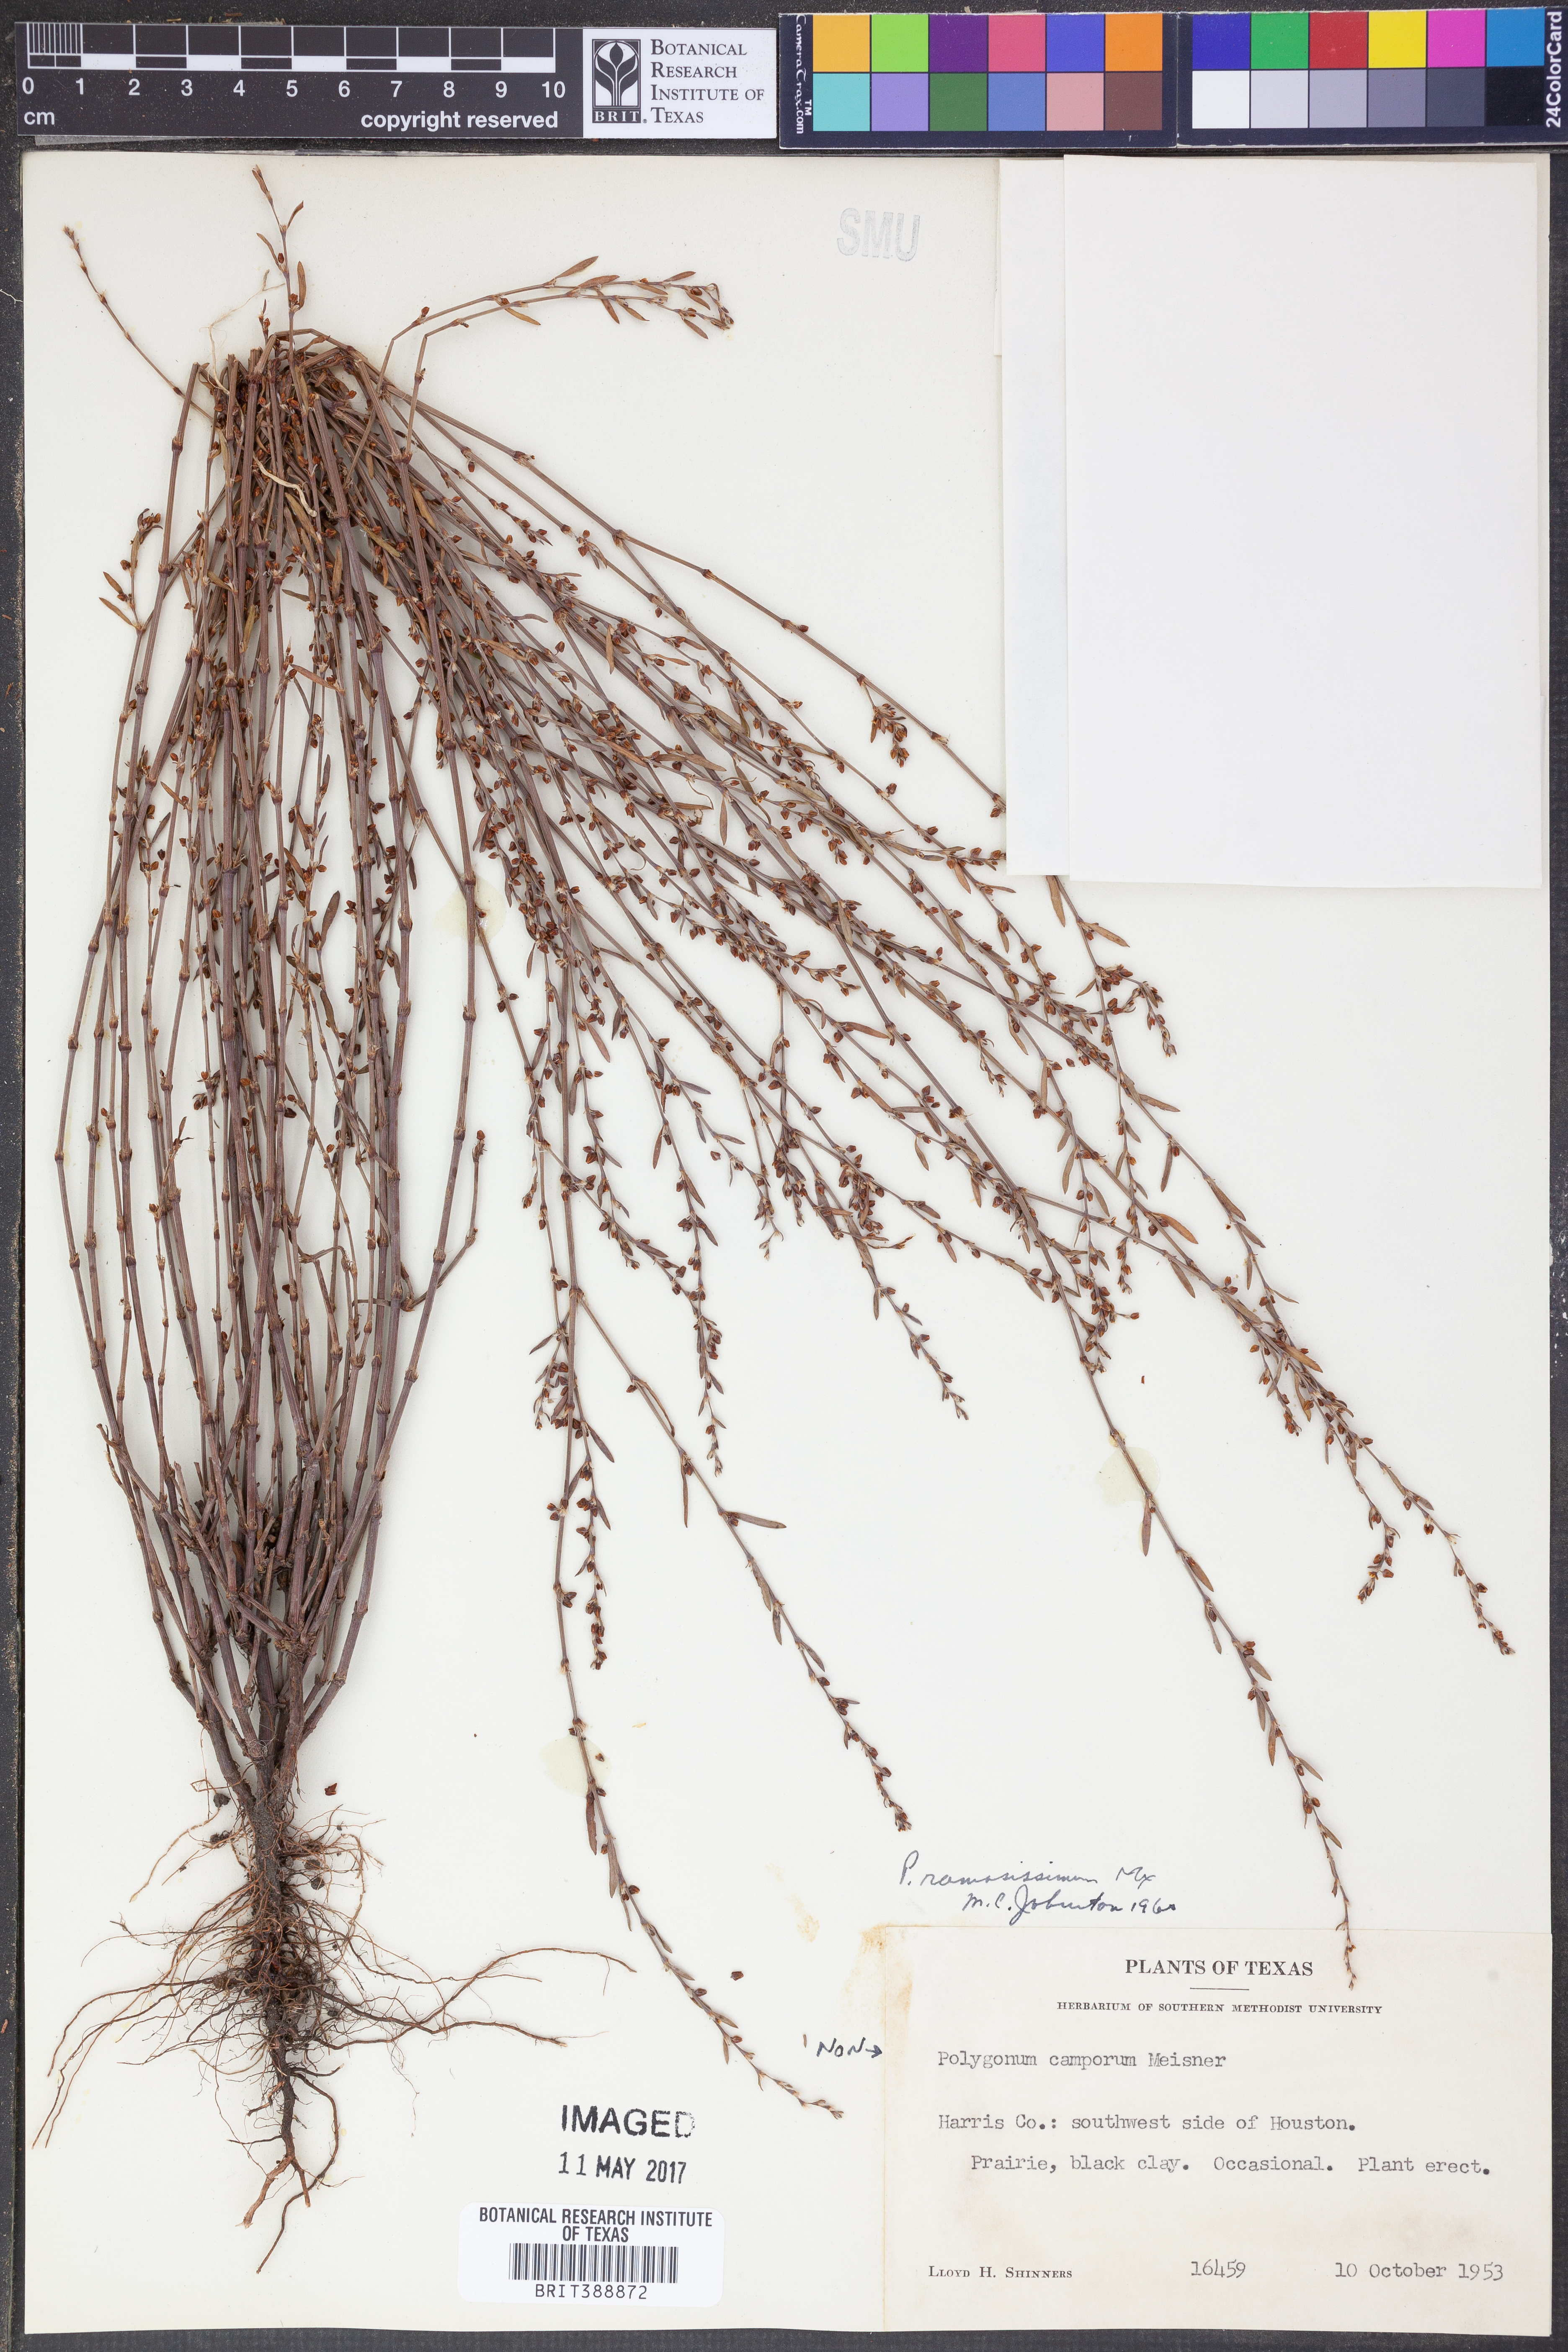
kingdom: Plantae
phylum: Tracheophyta
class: Magnoliopsida
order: Caryophyllales
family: Polygonaceae
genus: Polygonum
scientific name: Polygonum ramosissimum
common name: Bushy knotweed
